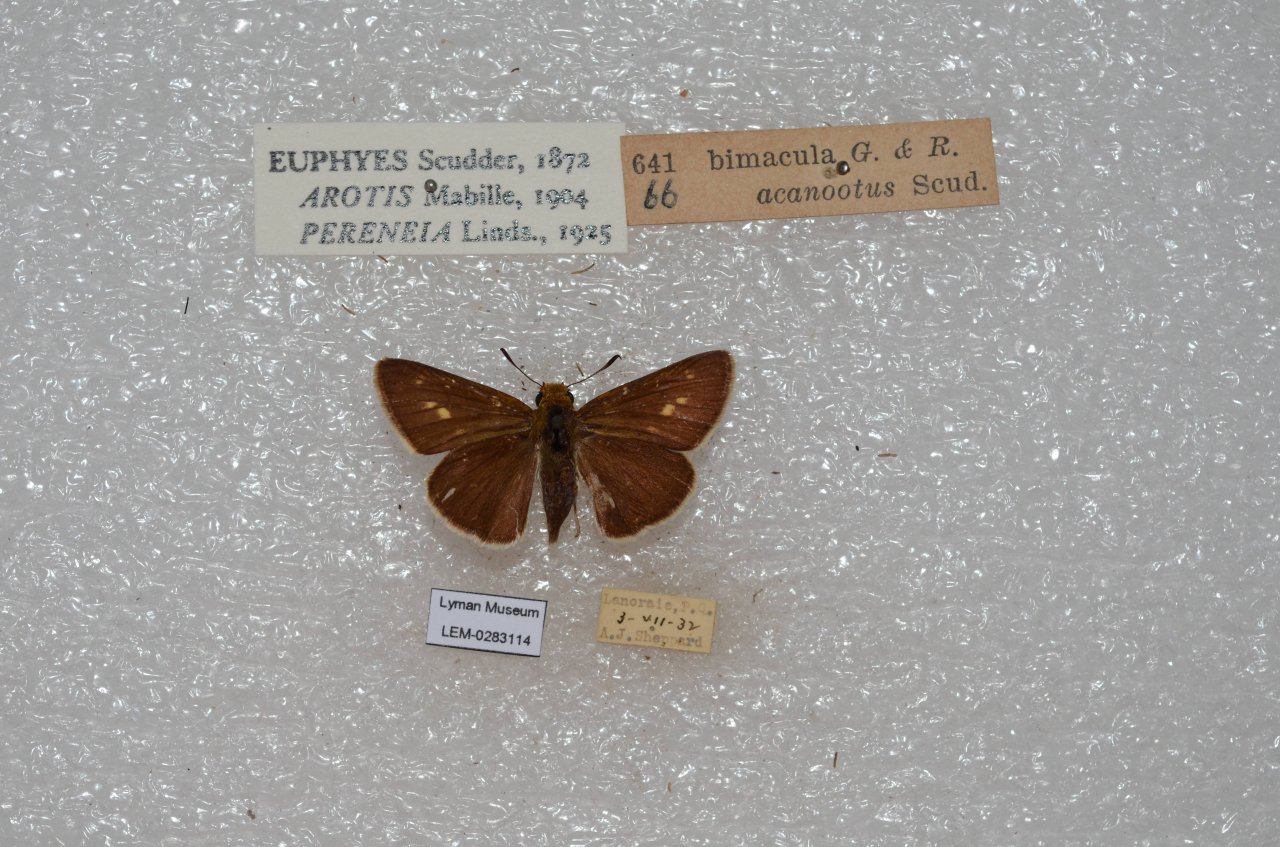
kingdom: Animalia
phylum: Arthropoda
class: Insecta
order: Lepidoptera
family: Hesperiidae
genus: Euphyes
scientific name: Euphyes bimacula
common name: Two-spotted Skipper
